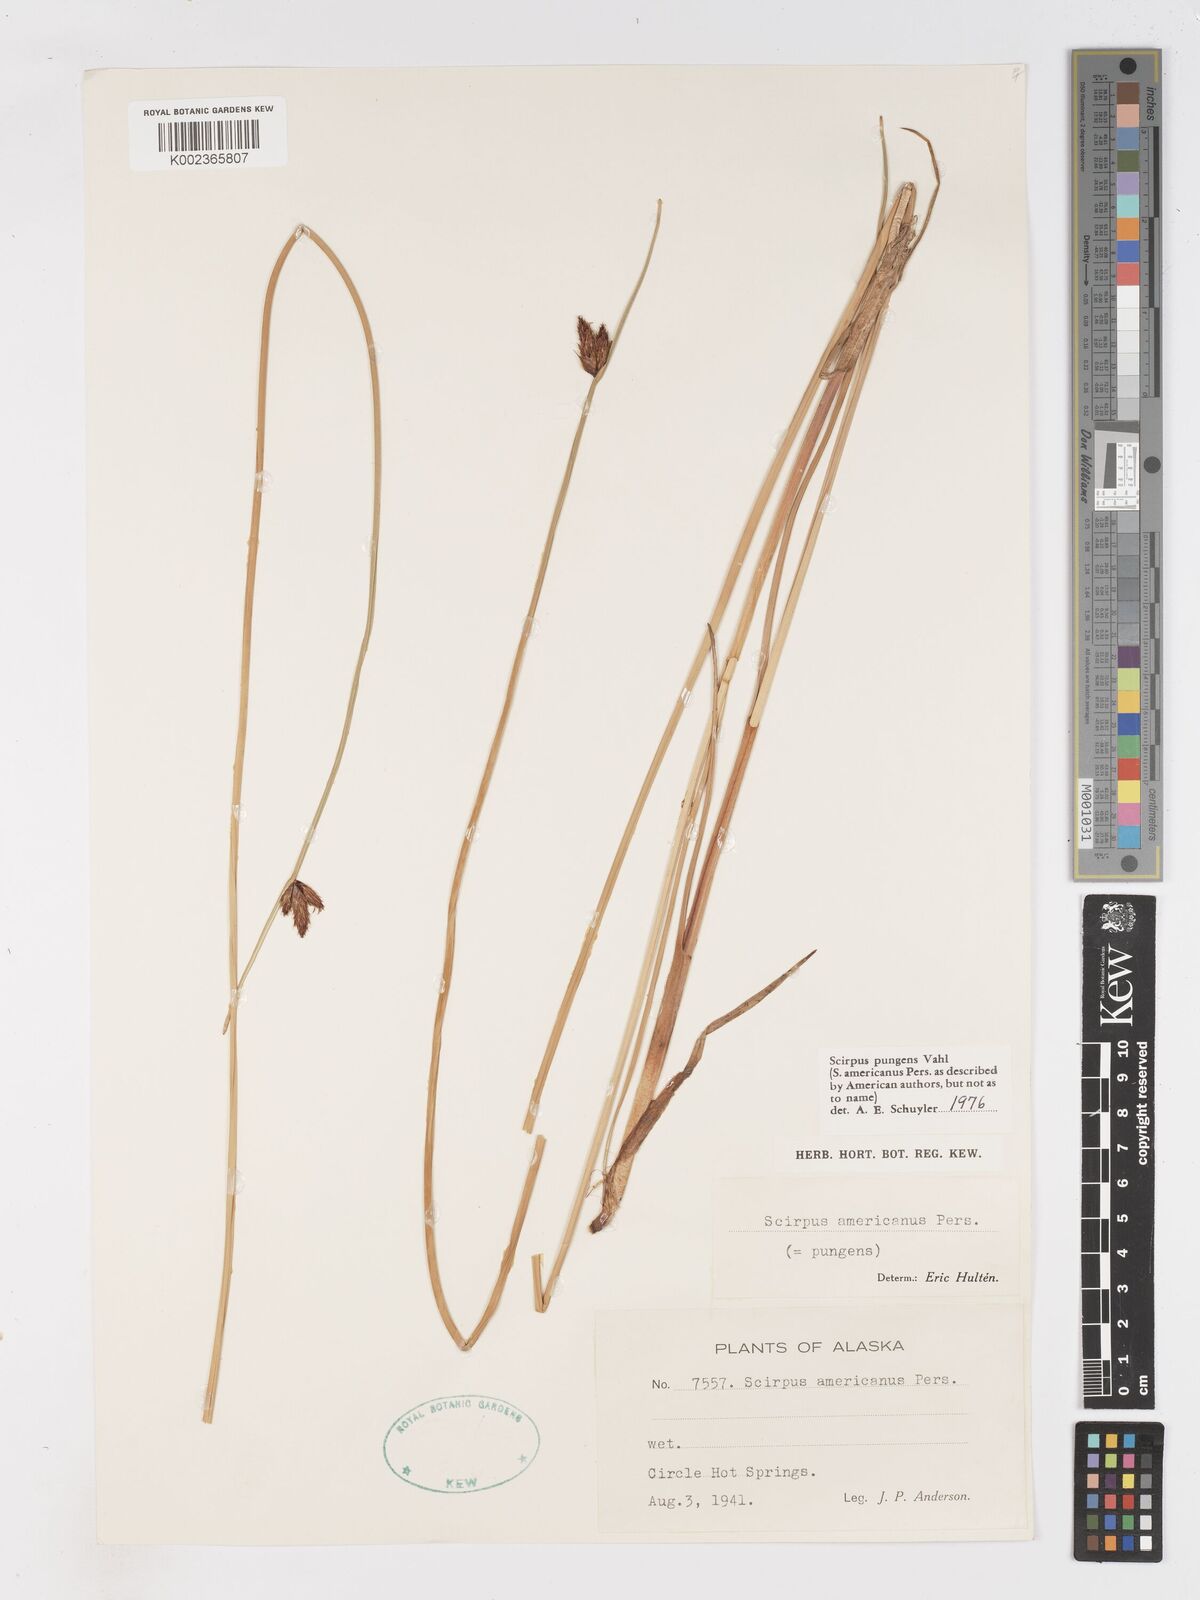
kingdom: Plantae
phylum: Tracheophyta
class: Liliopsida
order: Poales
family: Cyperaceae
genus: Schoenoplectus
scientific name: Schoenoplectus pungens
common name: Sharp club-rush
